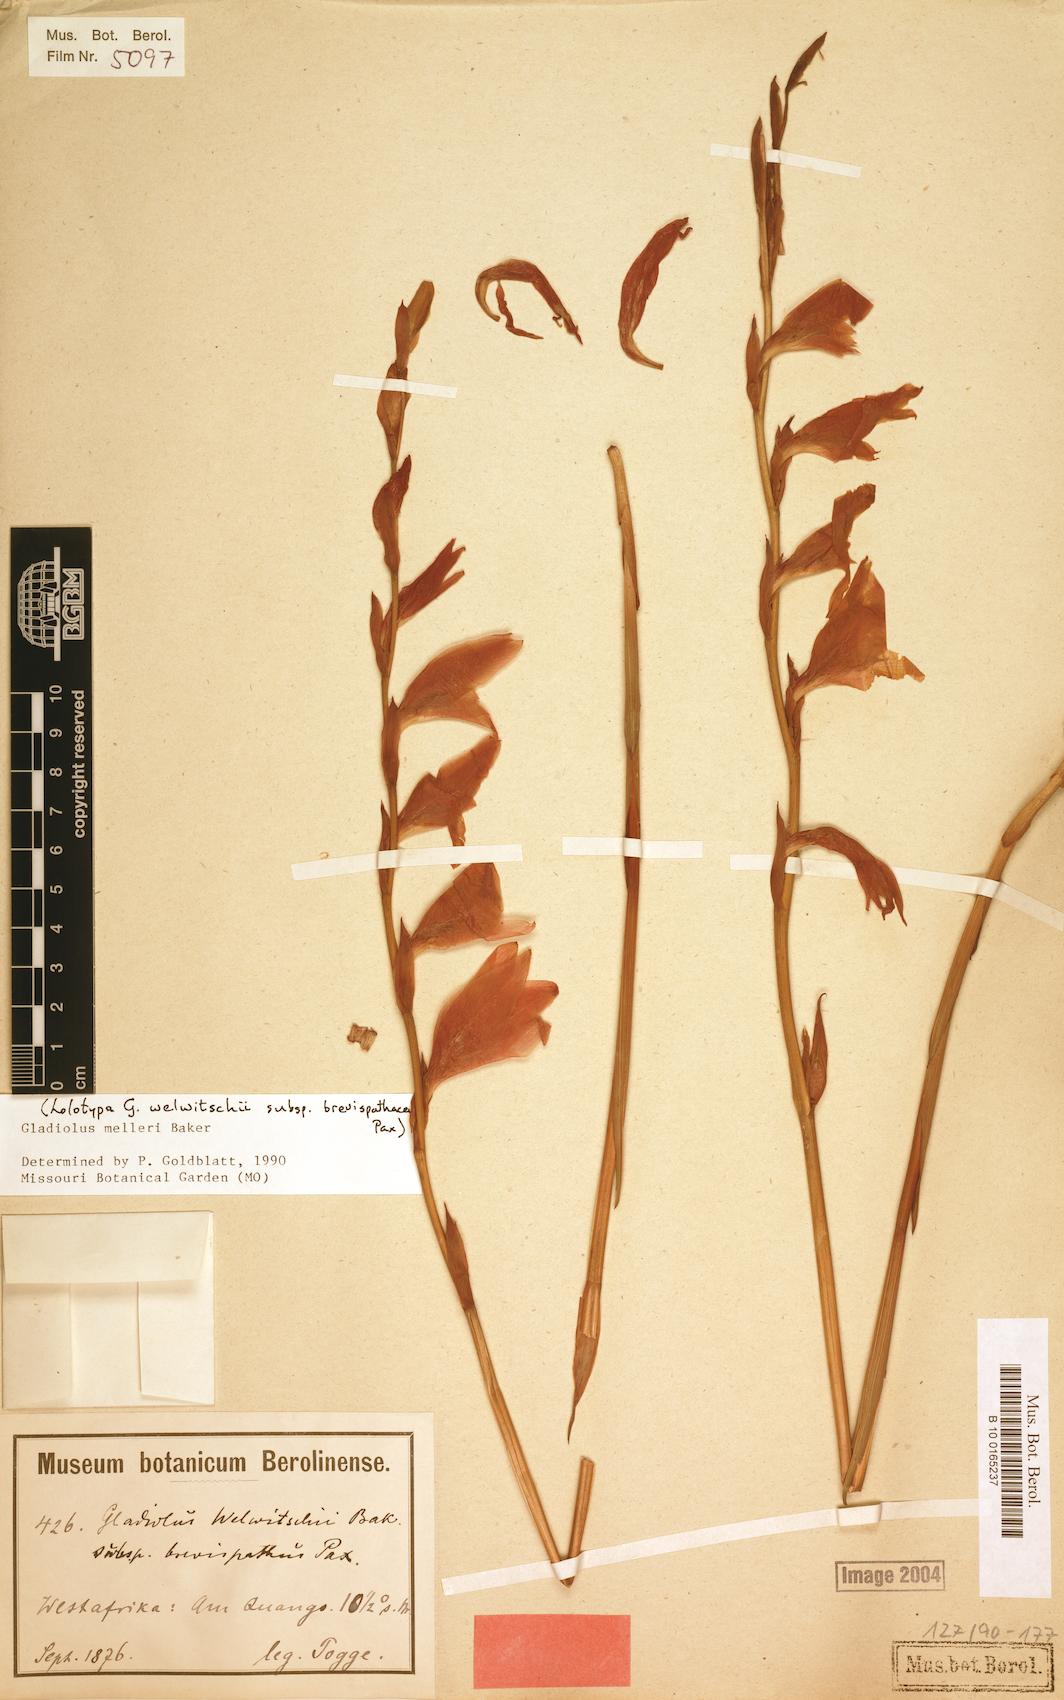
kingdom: Plantae
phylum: Tracheophyta
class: Liliopsida
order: Asparagales
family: Iridaceae
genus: Gladiolus
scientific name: Gladiolus melleri
